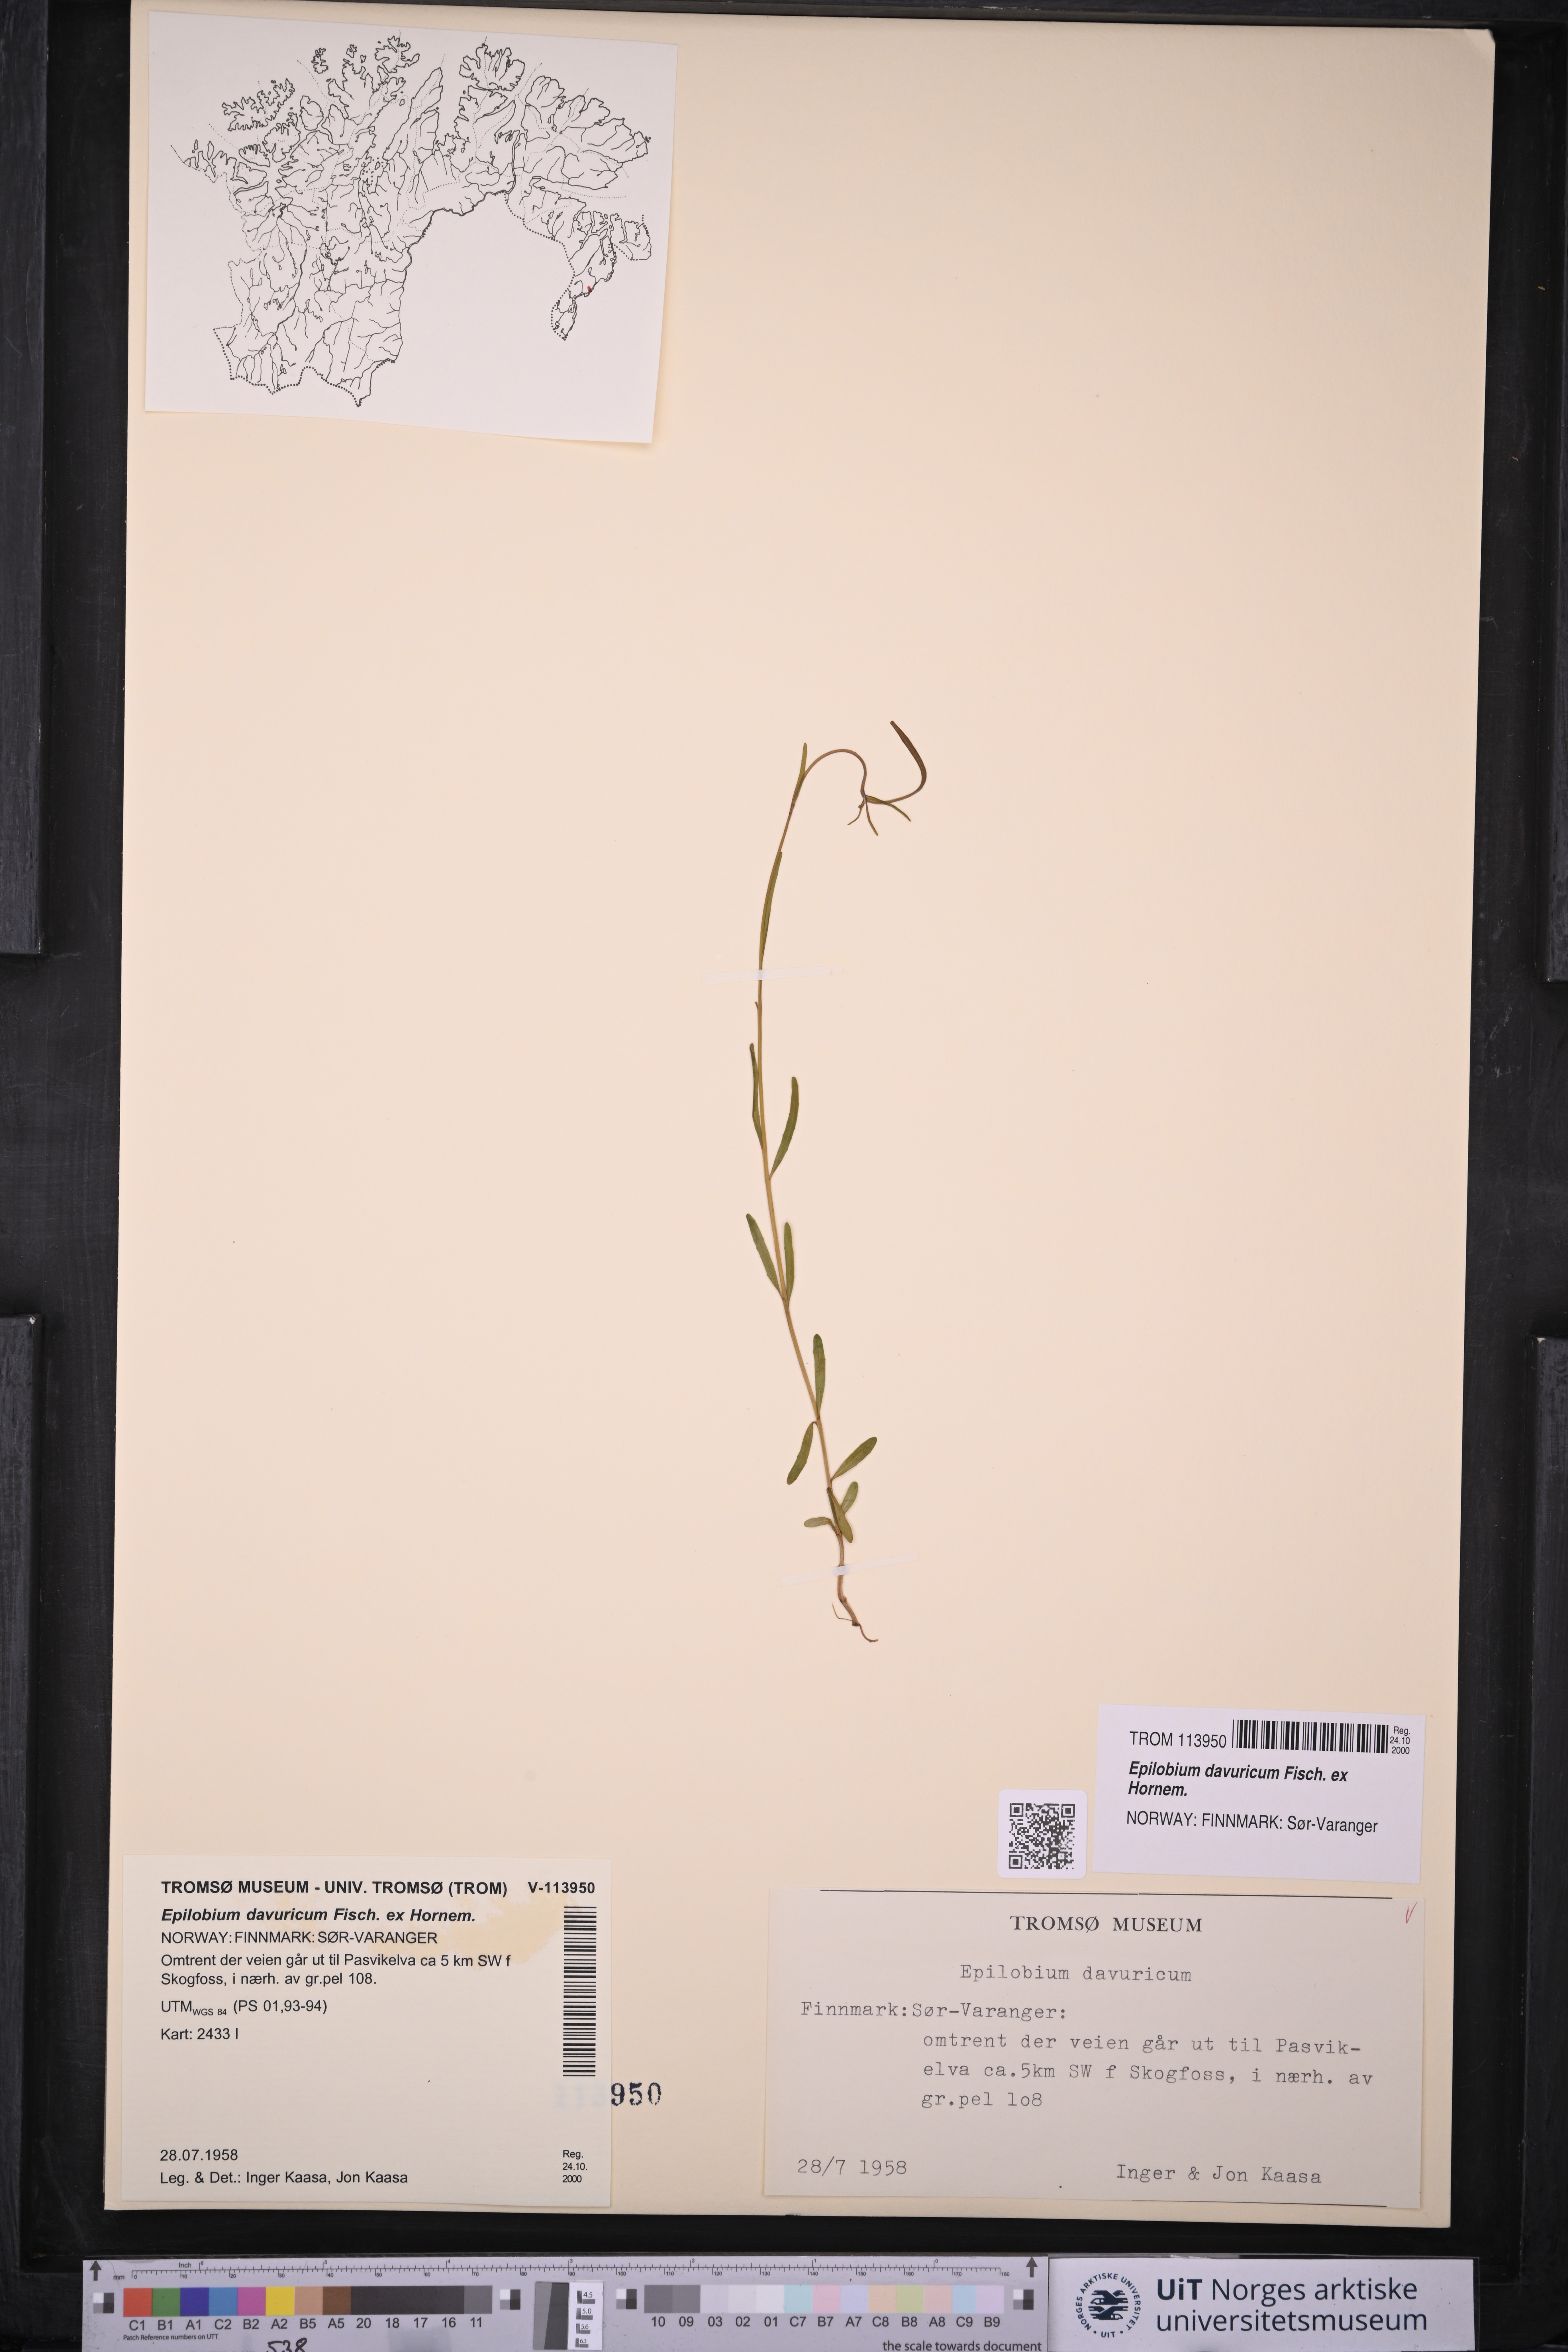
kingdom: Plantae
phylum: Tracheophyta
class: Magnoliopsida
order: Myrtales
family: Onagraceae
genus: Epilobium
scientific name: Epilobium davuricum
